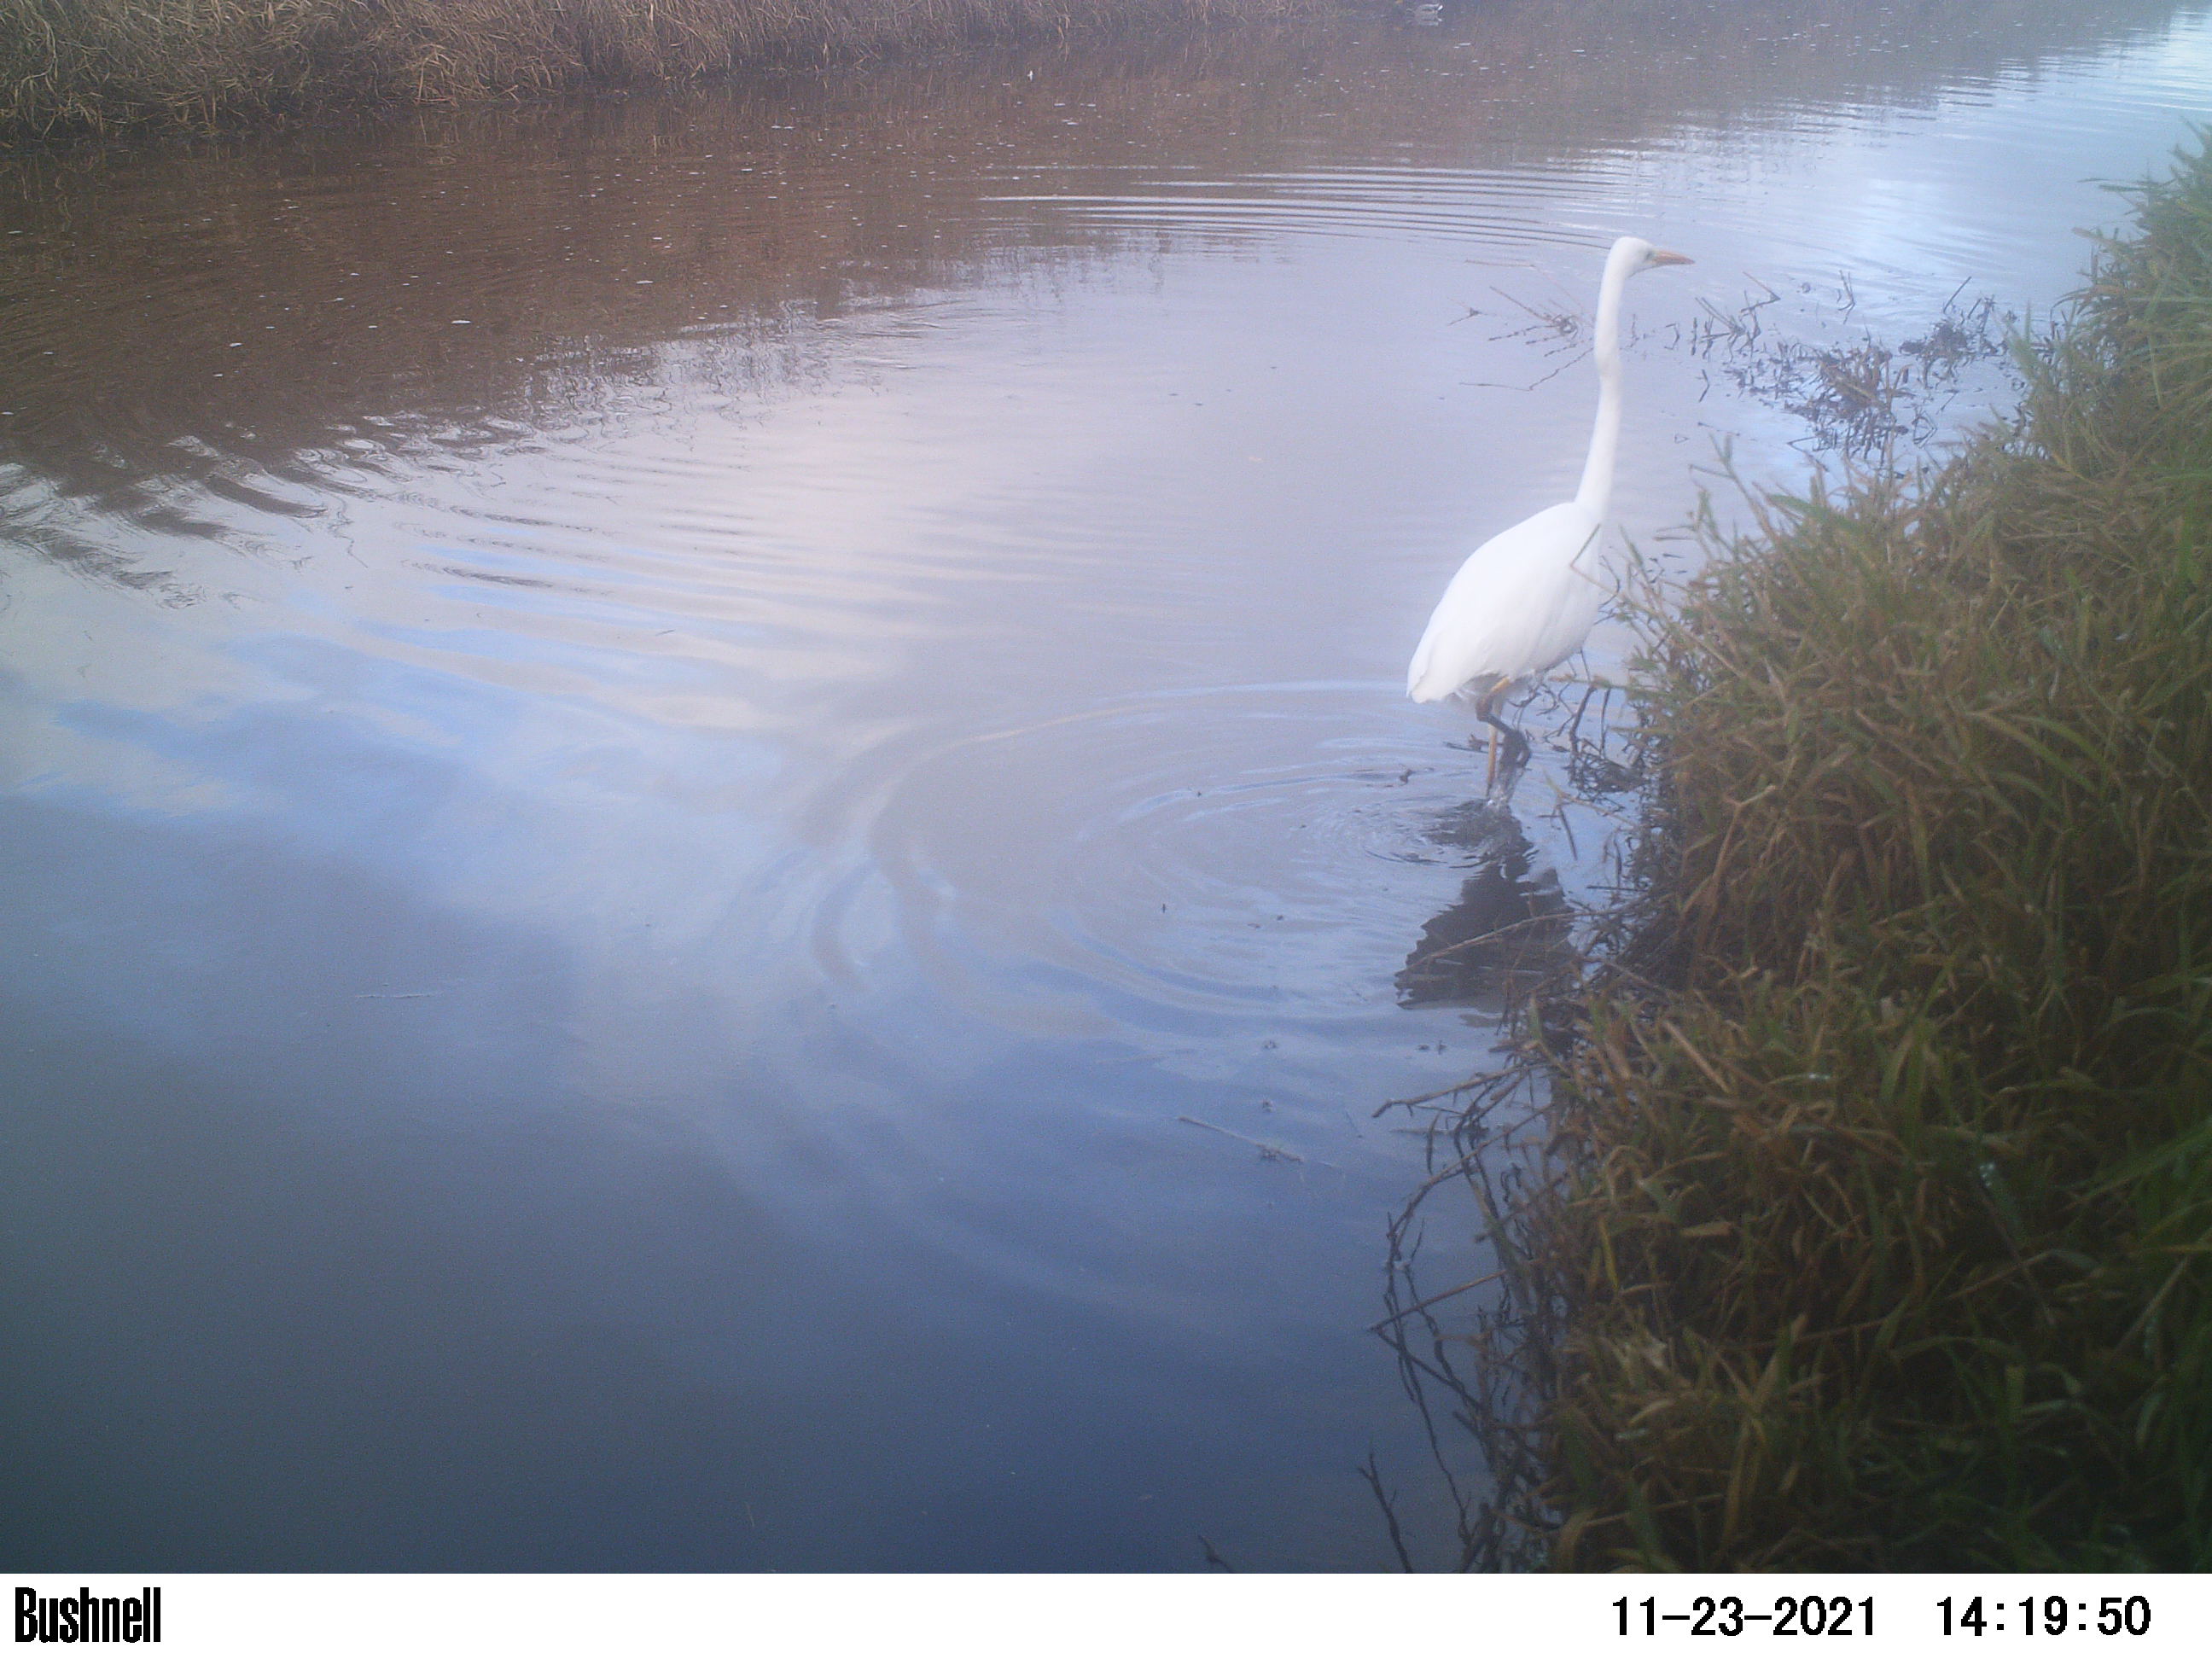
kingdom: Animalia
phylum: Chordata
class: Aves
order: Pelecaniformes
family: Ardeidae
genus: Ardea
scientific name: Ardea alba
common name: Great egret
